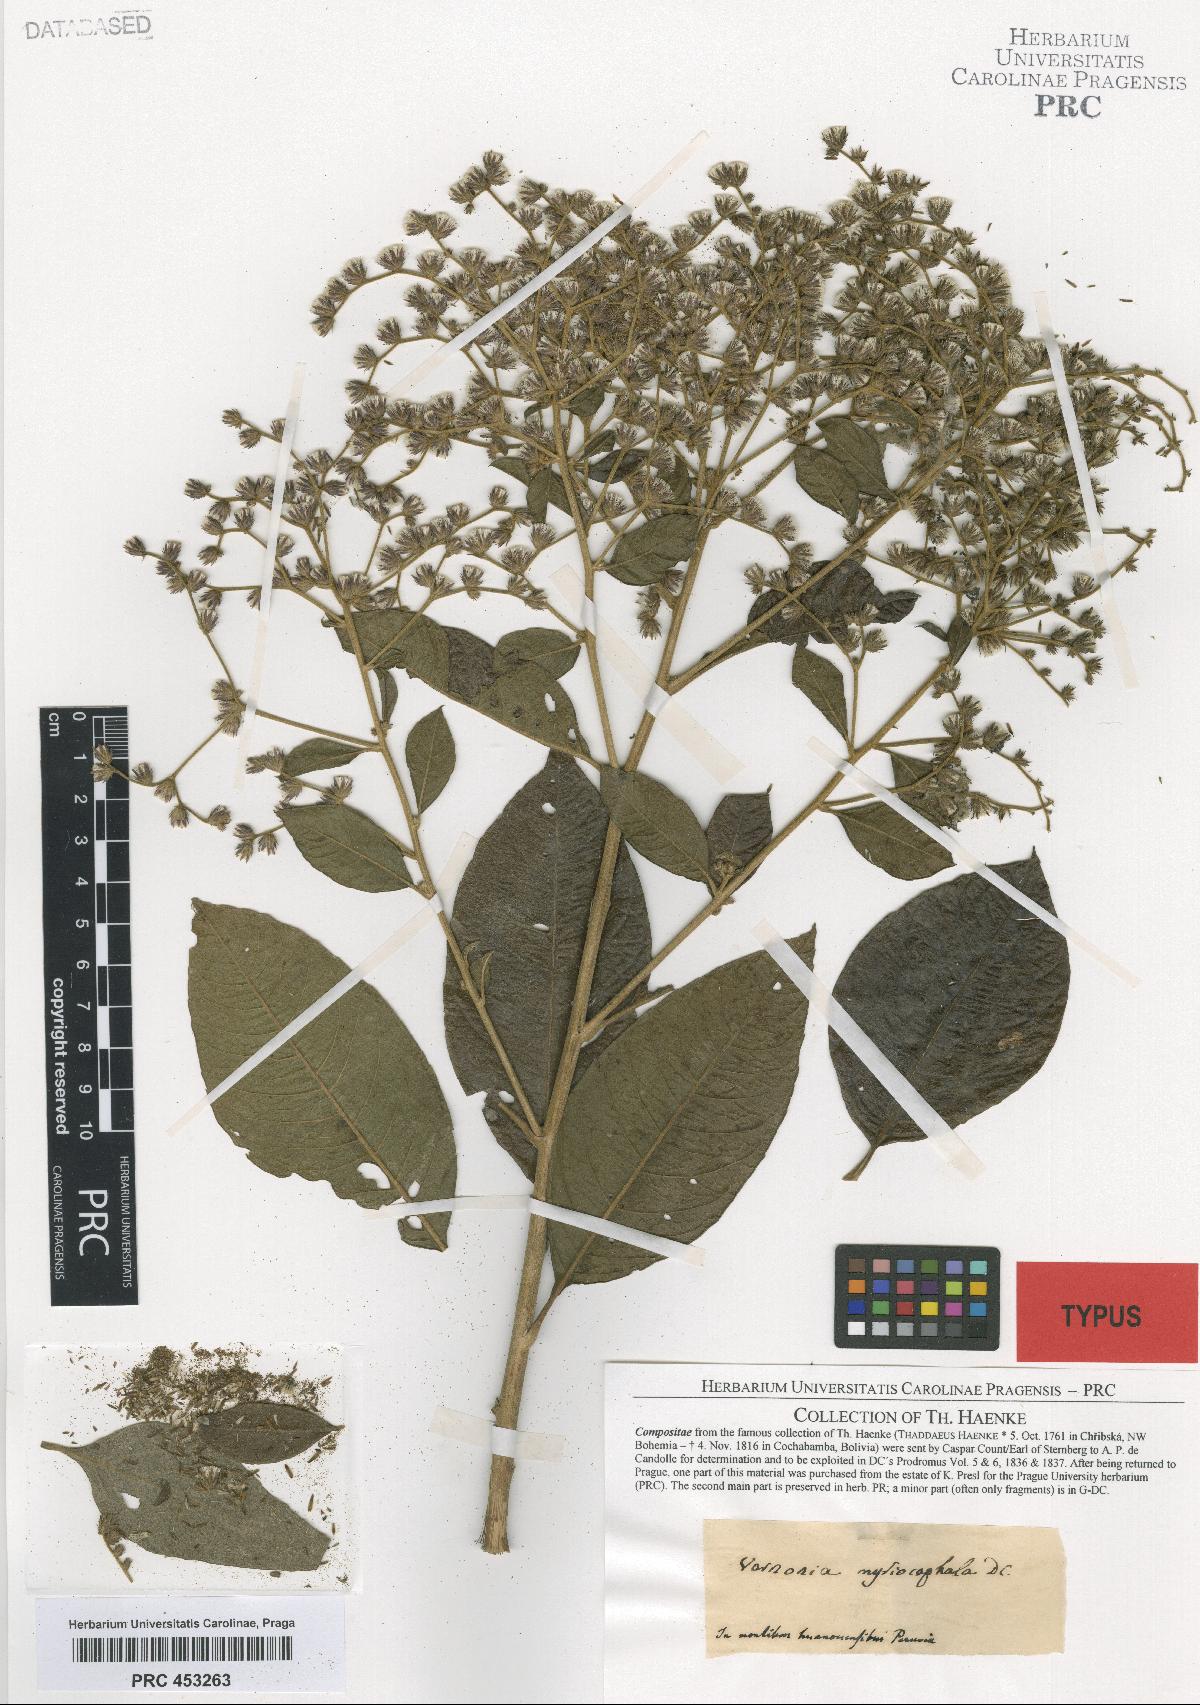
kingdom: Plantae
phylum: Tracheophyta
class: Magnoliopsida
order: Asterales
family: Asteraceae
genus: Lepidaploa
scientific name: Lepidaploa myriocephala
